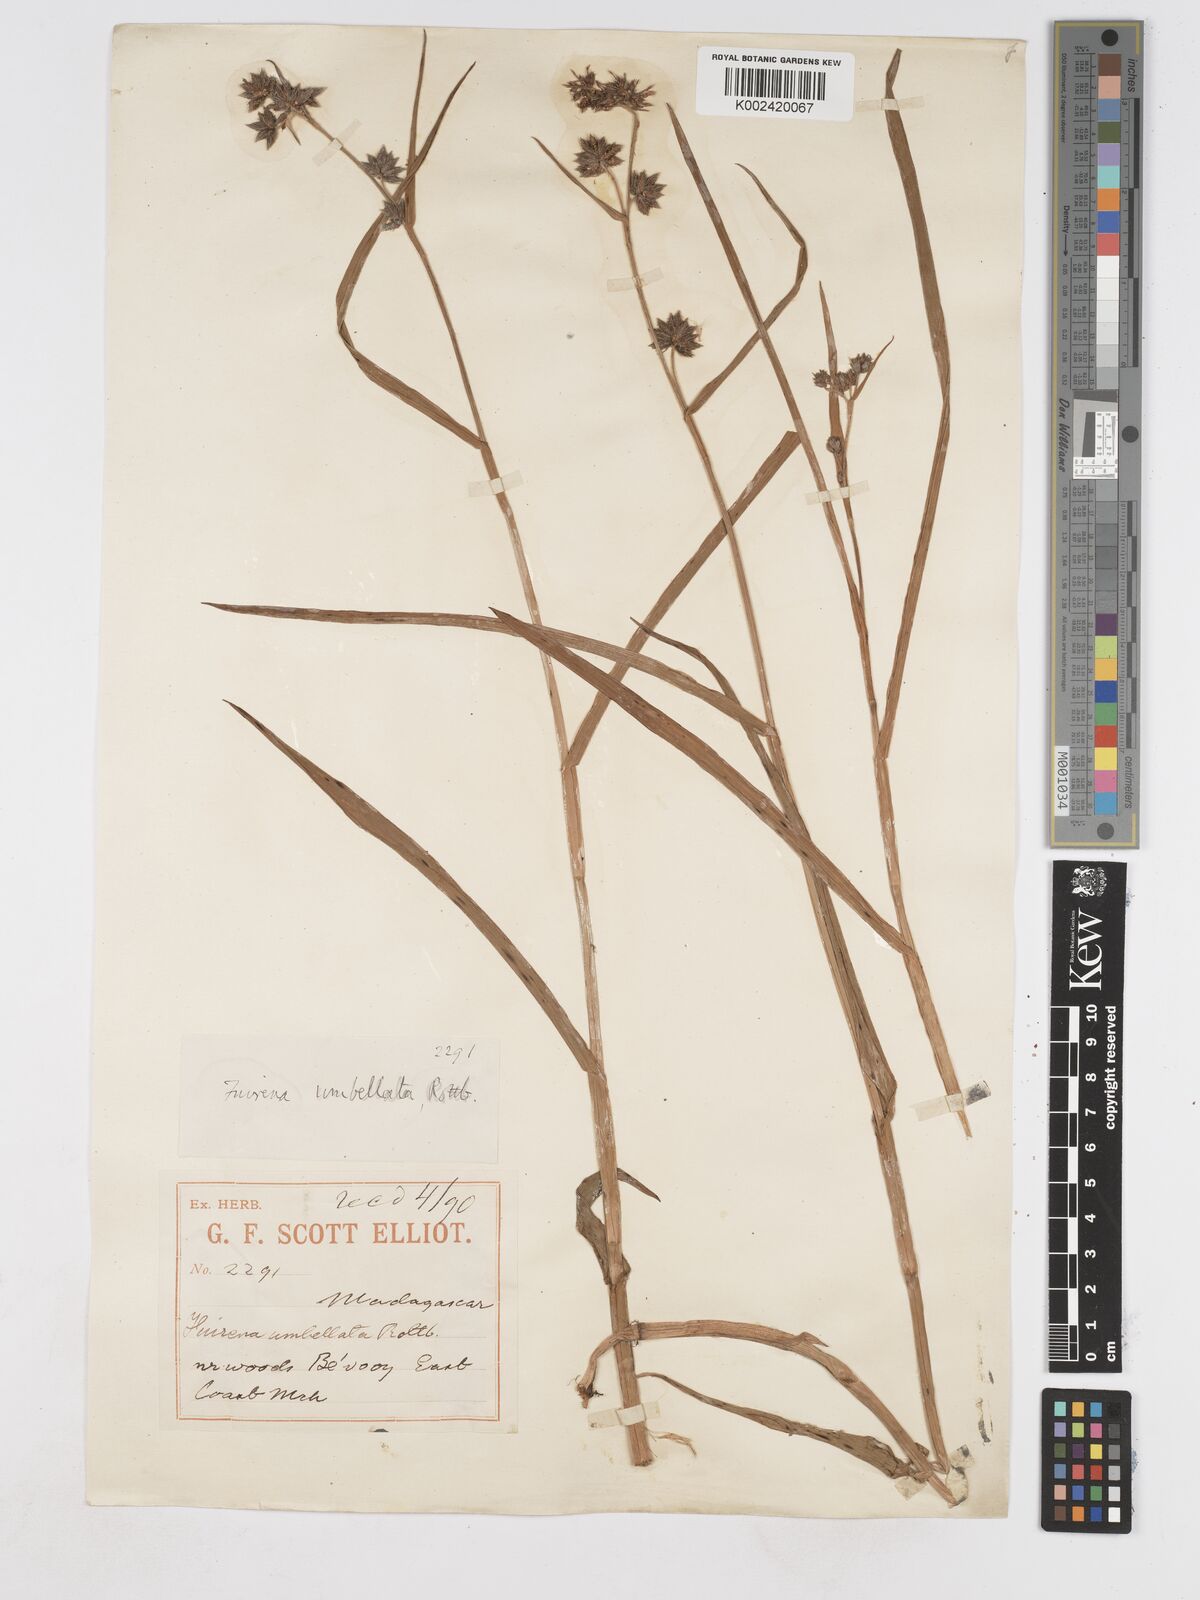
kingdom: Plantae
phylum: Tracheophyta
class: Liliopsida
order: Poales
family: Cyperaceae
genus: Fuirena
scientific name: Fuirena umbellata
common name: Yefen
